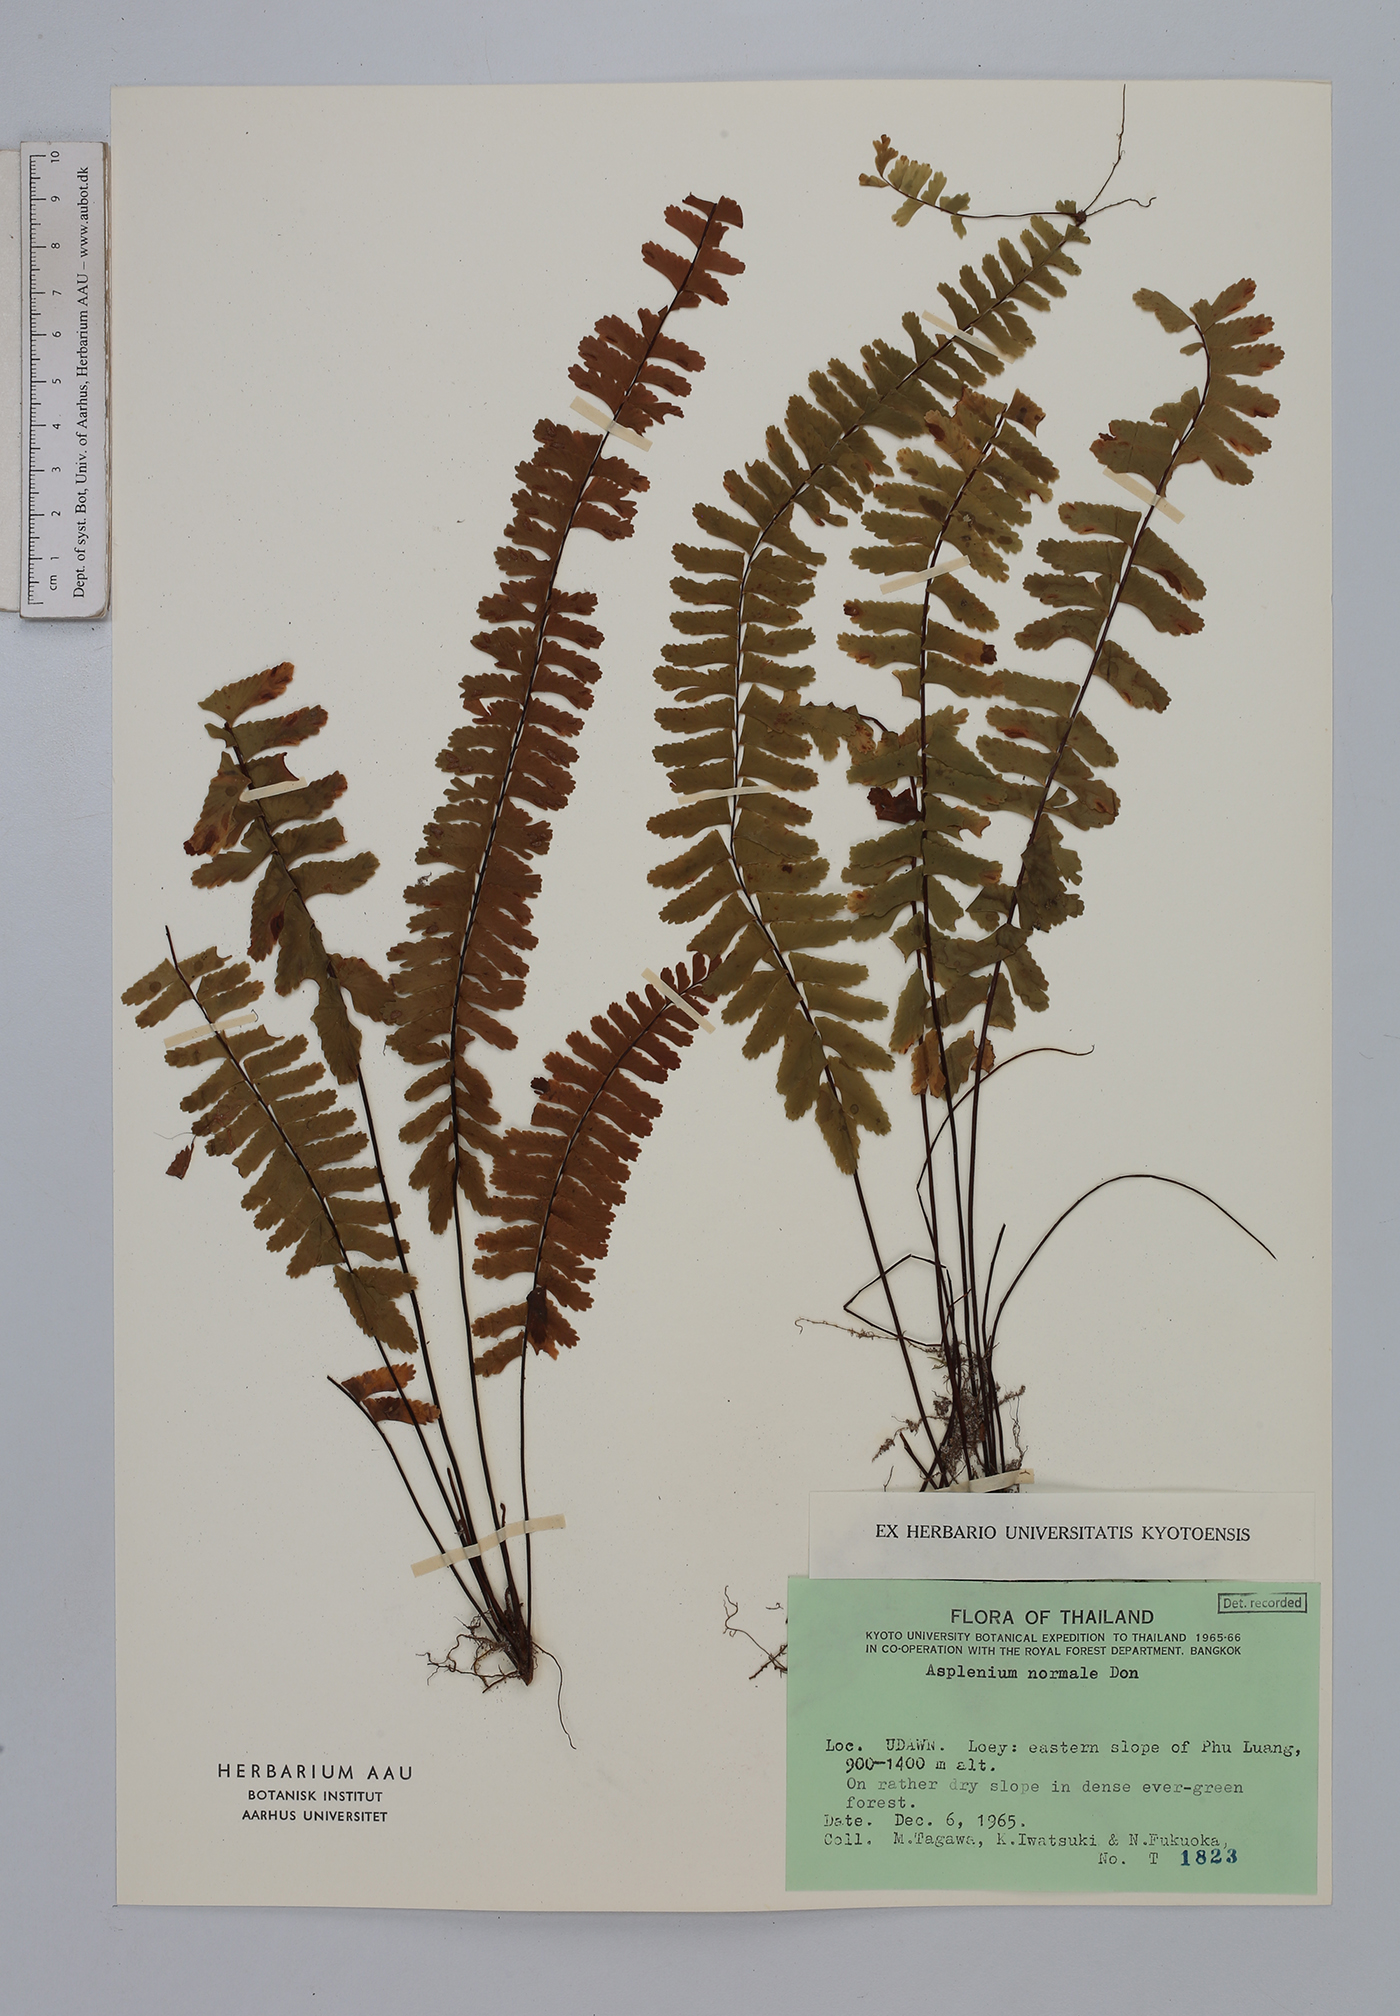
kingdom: Plantae
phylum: Tracheophyta
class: Polypodiopsida
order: Polypodiales
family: Aspleniaceae
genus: Asplenium
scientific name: Asplenium normale
